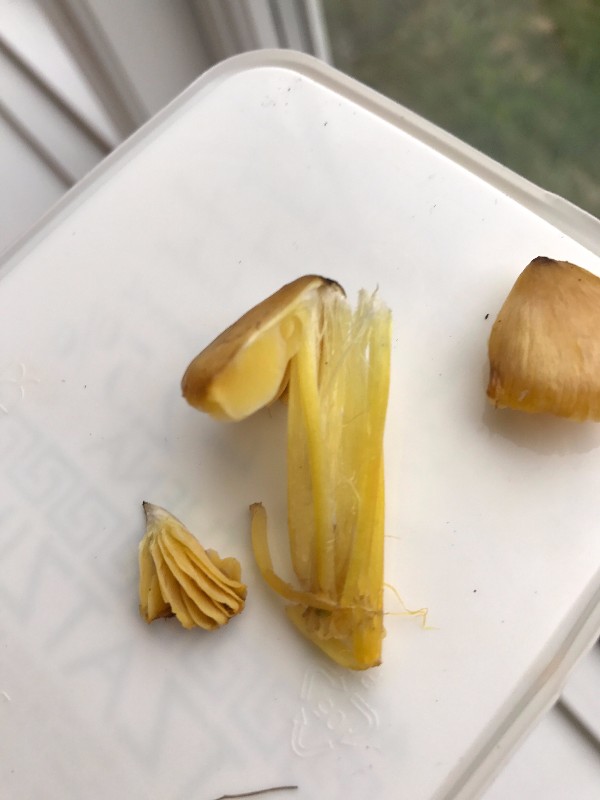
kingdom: Fungi
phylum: Basidiomycota
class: Agaricomycetes
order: Agaricales
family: Hygrophoraceae
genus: Hygrocybe
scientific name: Hygrocybe acutoconica
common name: spidspuklet vokshat
